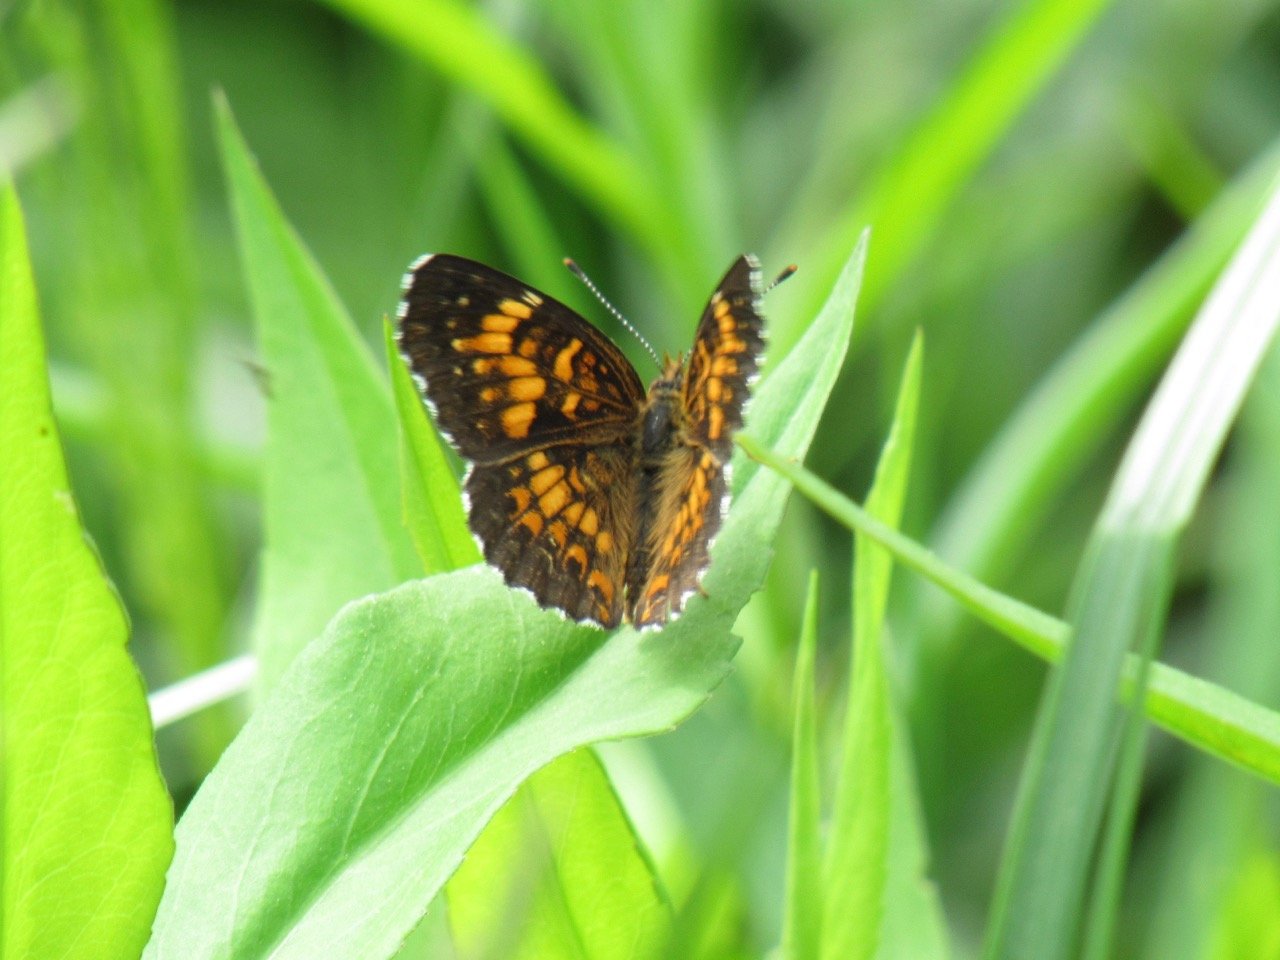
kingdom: Animalia
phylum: Arthropoda
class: Insecta
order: Lepidoptera
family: Nymphalidae
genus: Chlosyne
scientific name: Chlosyne harrisii
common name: Harris's Checkerspot
